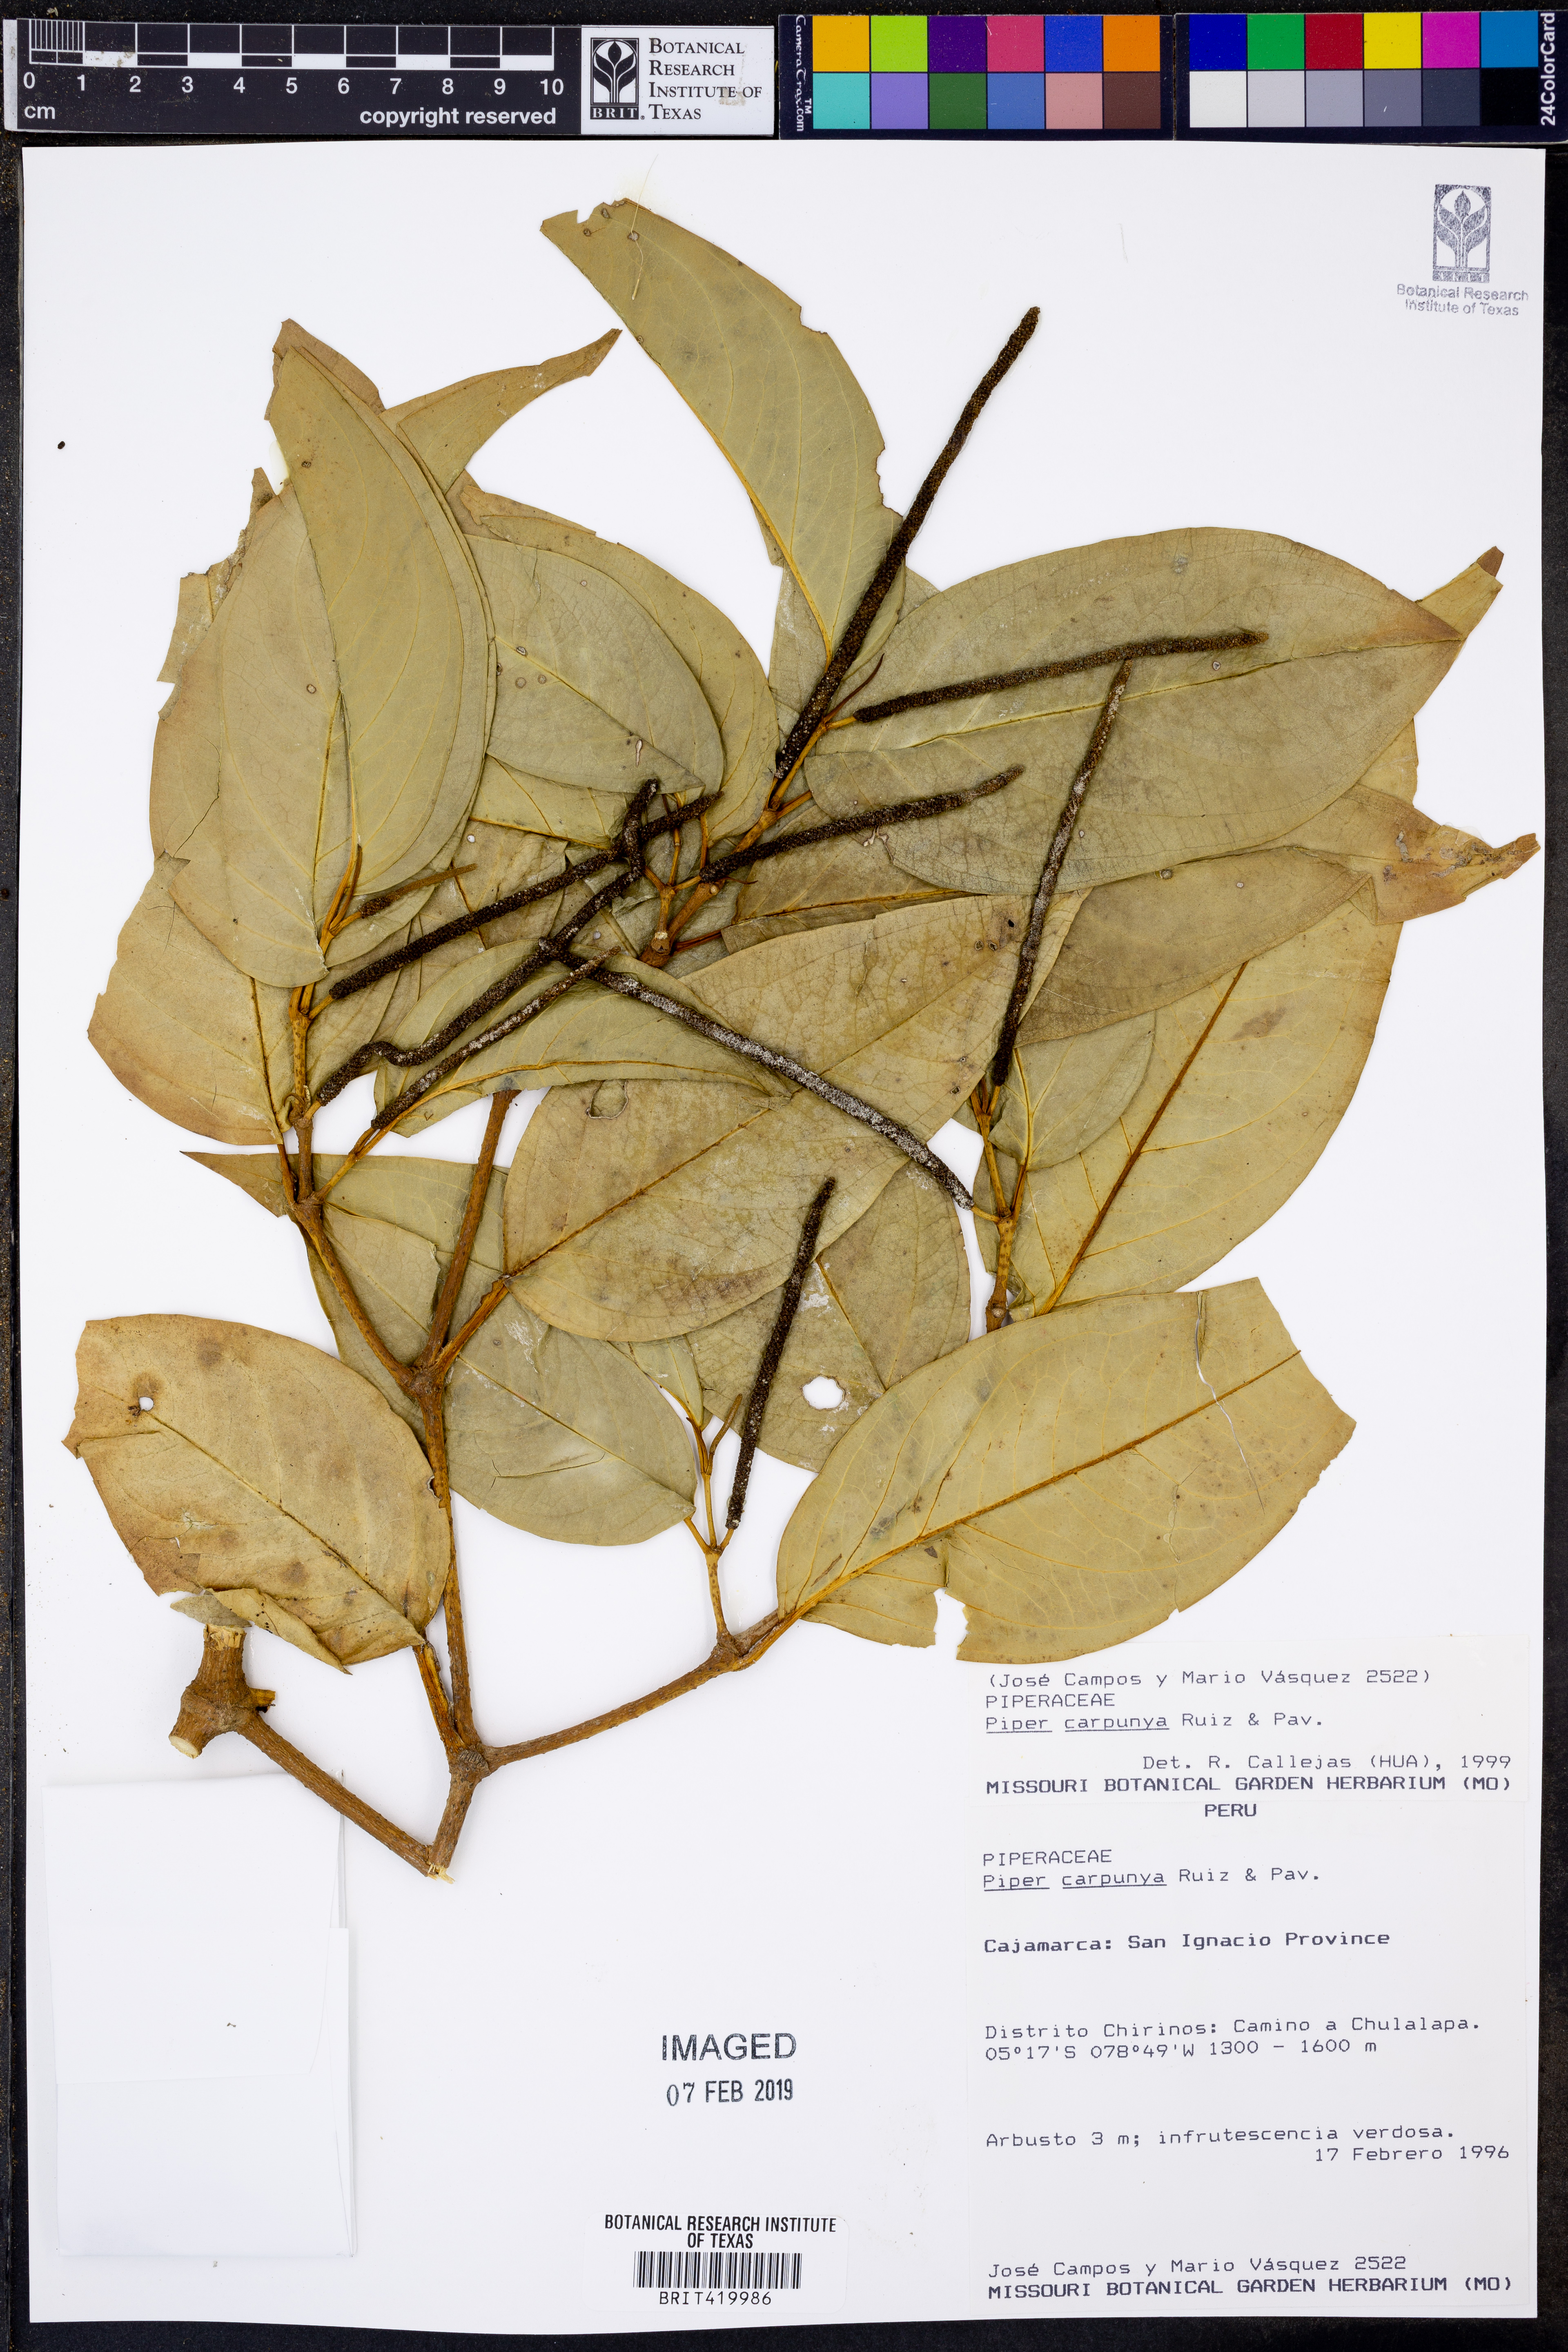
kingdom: Plantae
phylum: Tracheophyta
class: Magnoliopsida
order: Piperales
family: Piperaceae
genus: Piper
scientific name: Piper carpunya
